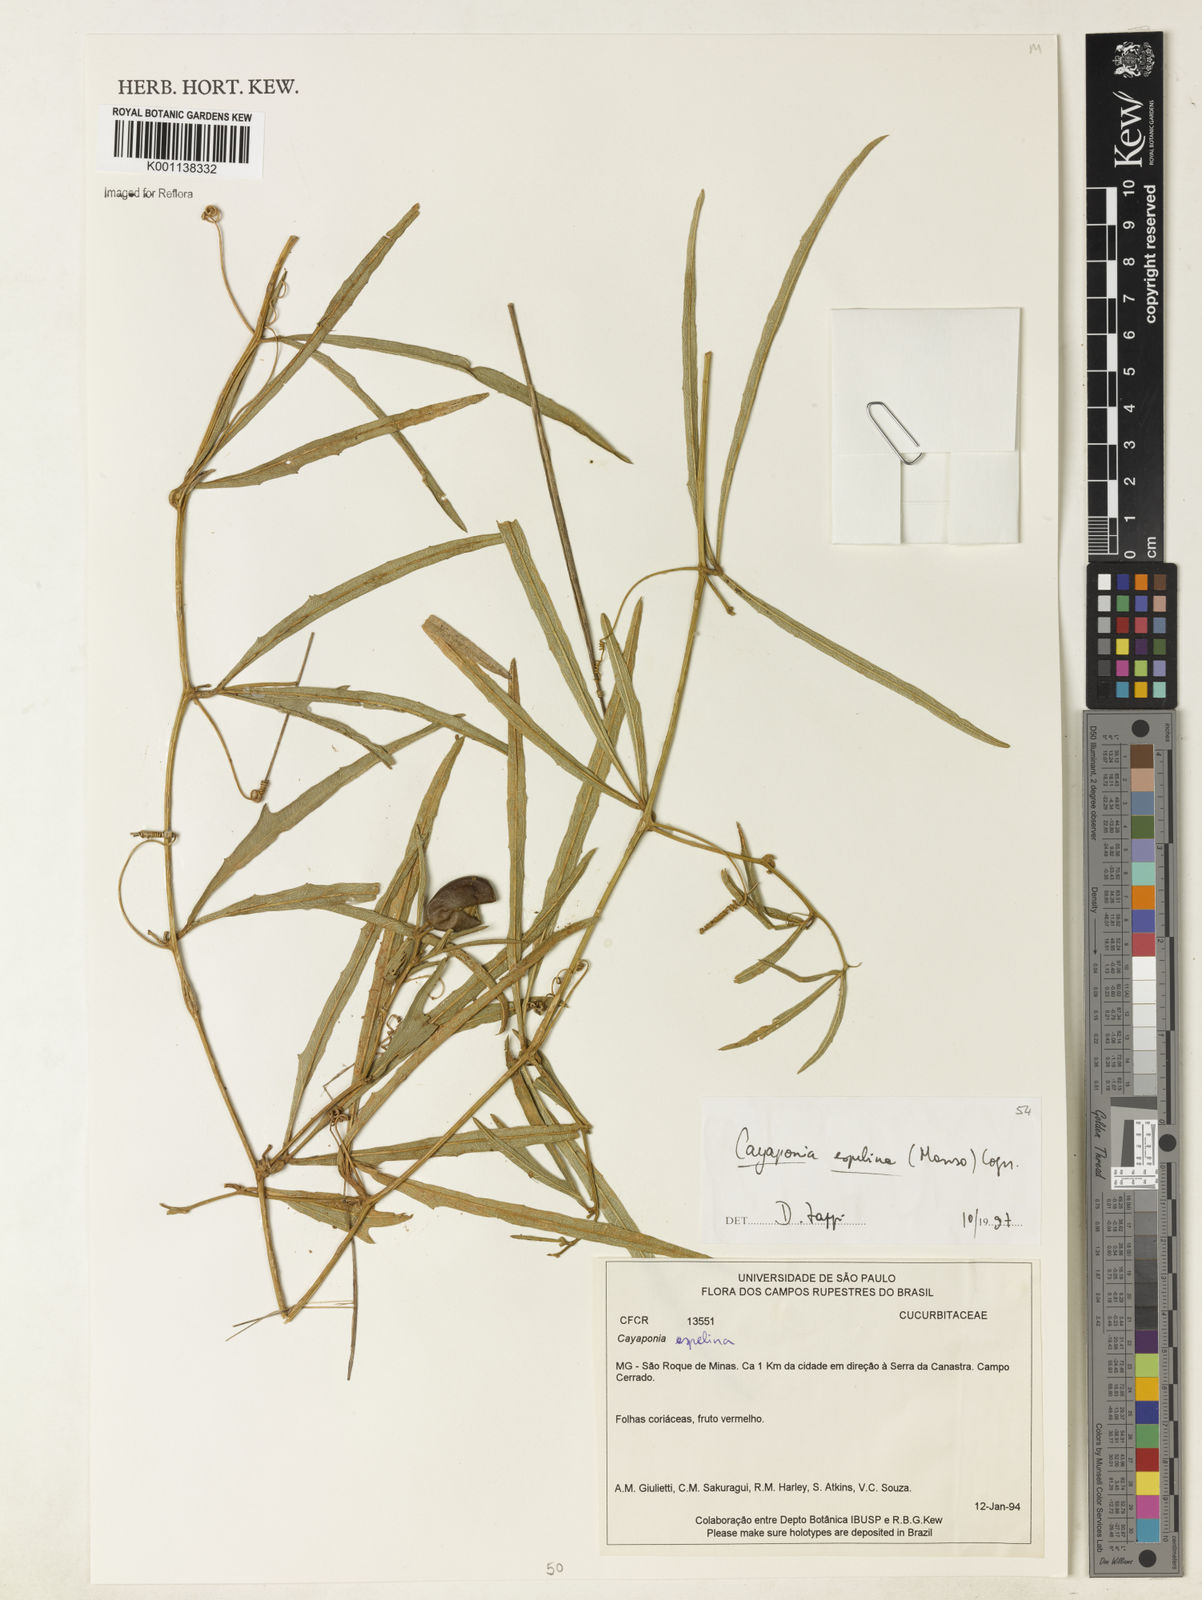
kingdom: Plantae
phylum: Tracheophyta
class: Magnoliopsida
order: Cucurbitales
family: Cucurbitaceae
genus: Cayaponia
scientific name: Cayaponia espelina
